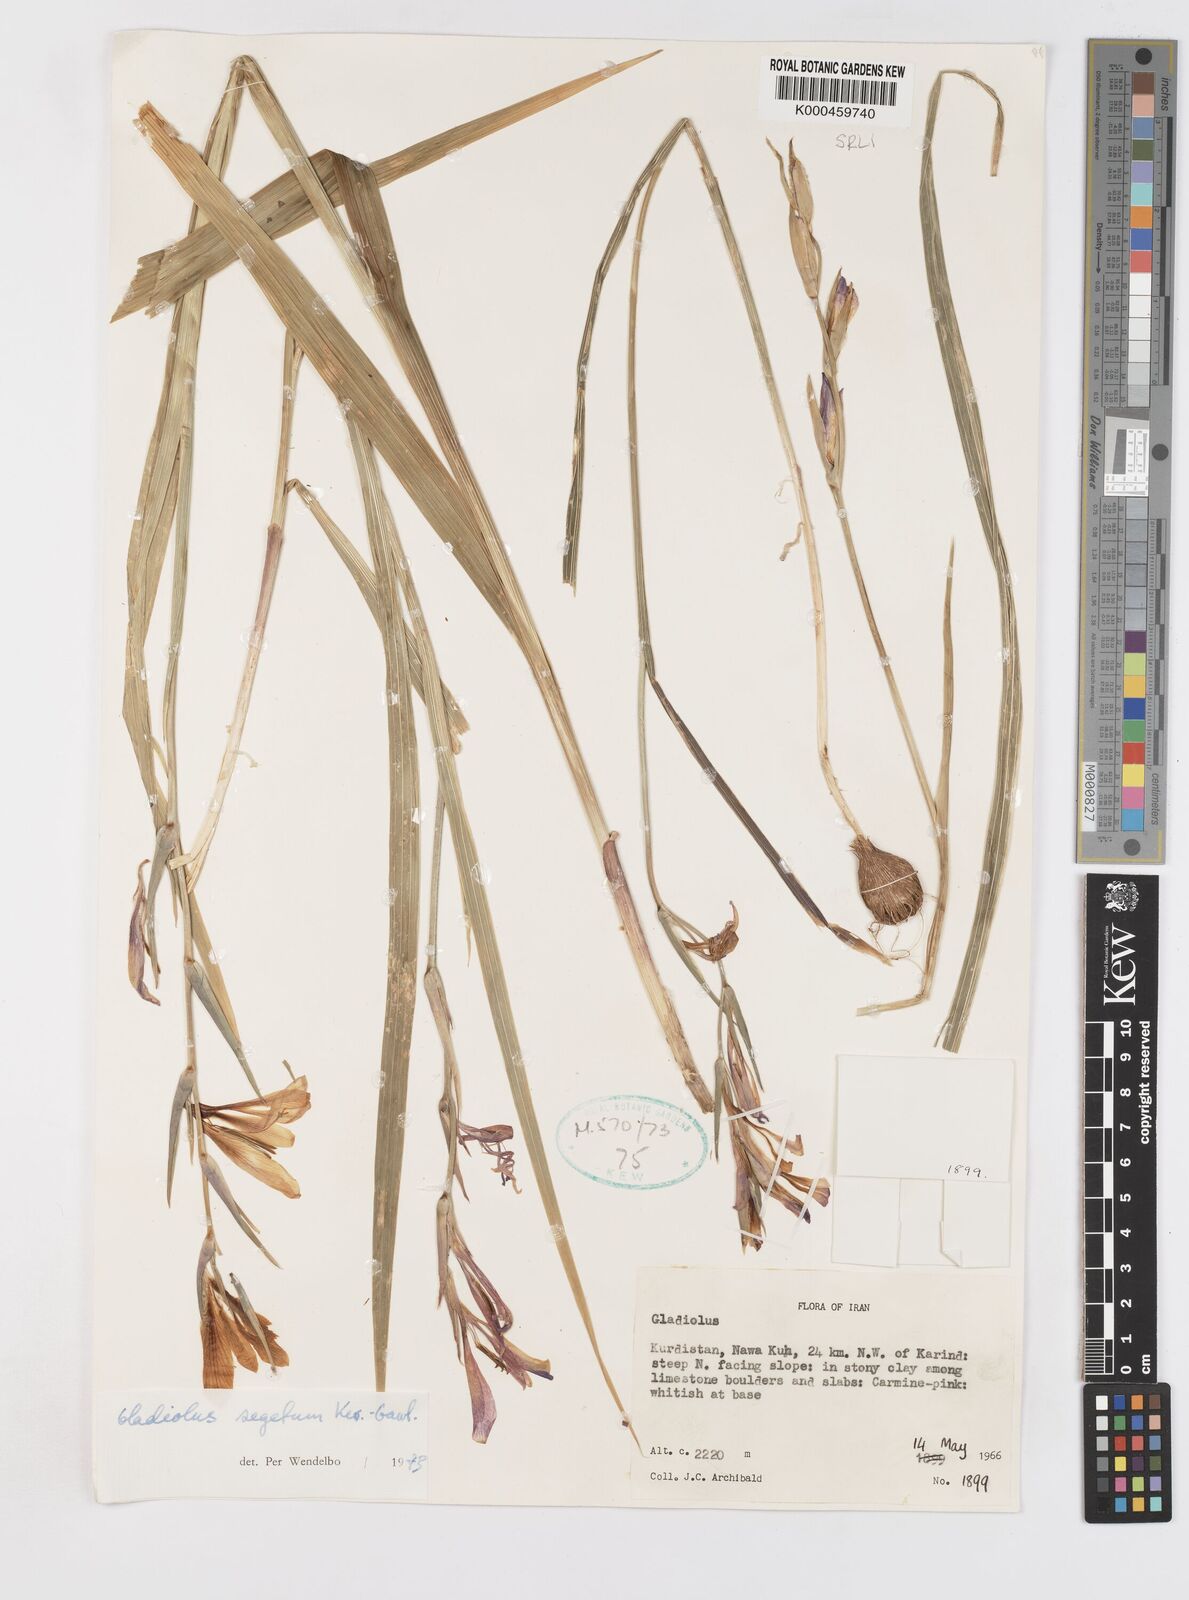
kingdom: Plantae
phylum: Tracheophyta
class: Liliopsida
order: Asparagales
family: Iridaceae
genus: Gladiolus
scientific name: Gladiolus italicus
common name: Field gladiolus
